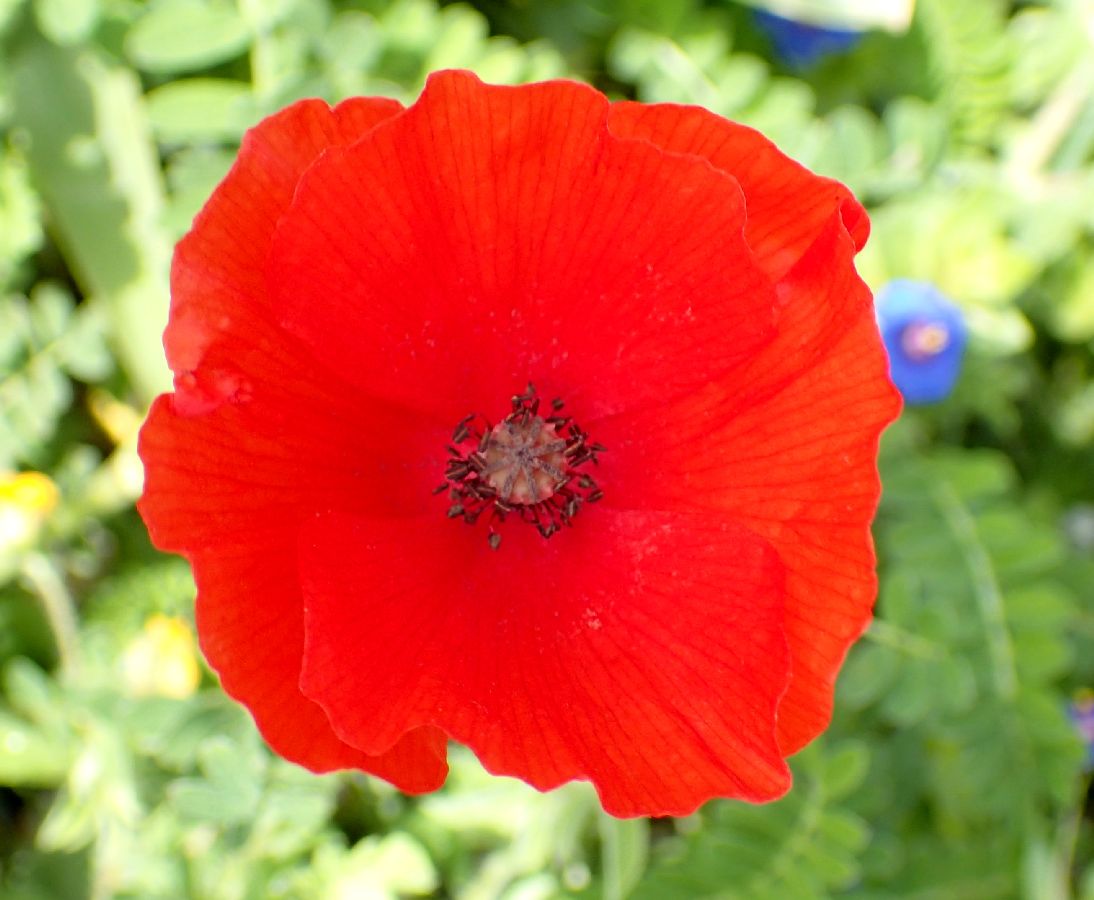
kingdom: Plantae
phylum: Tracheophyta
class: Magnoliopsida
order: Ranunculales
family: Papaveraceae
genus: Papaver
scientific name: Papaver dubium
